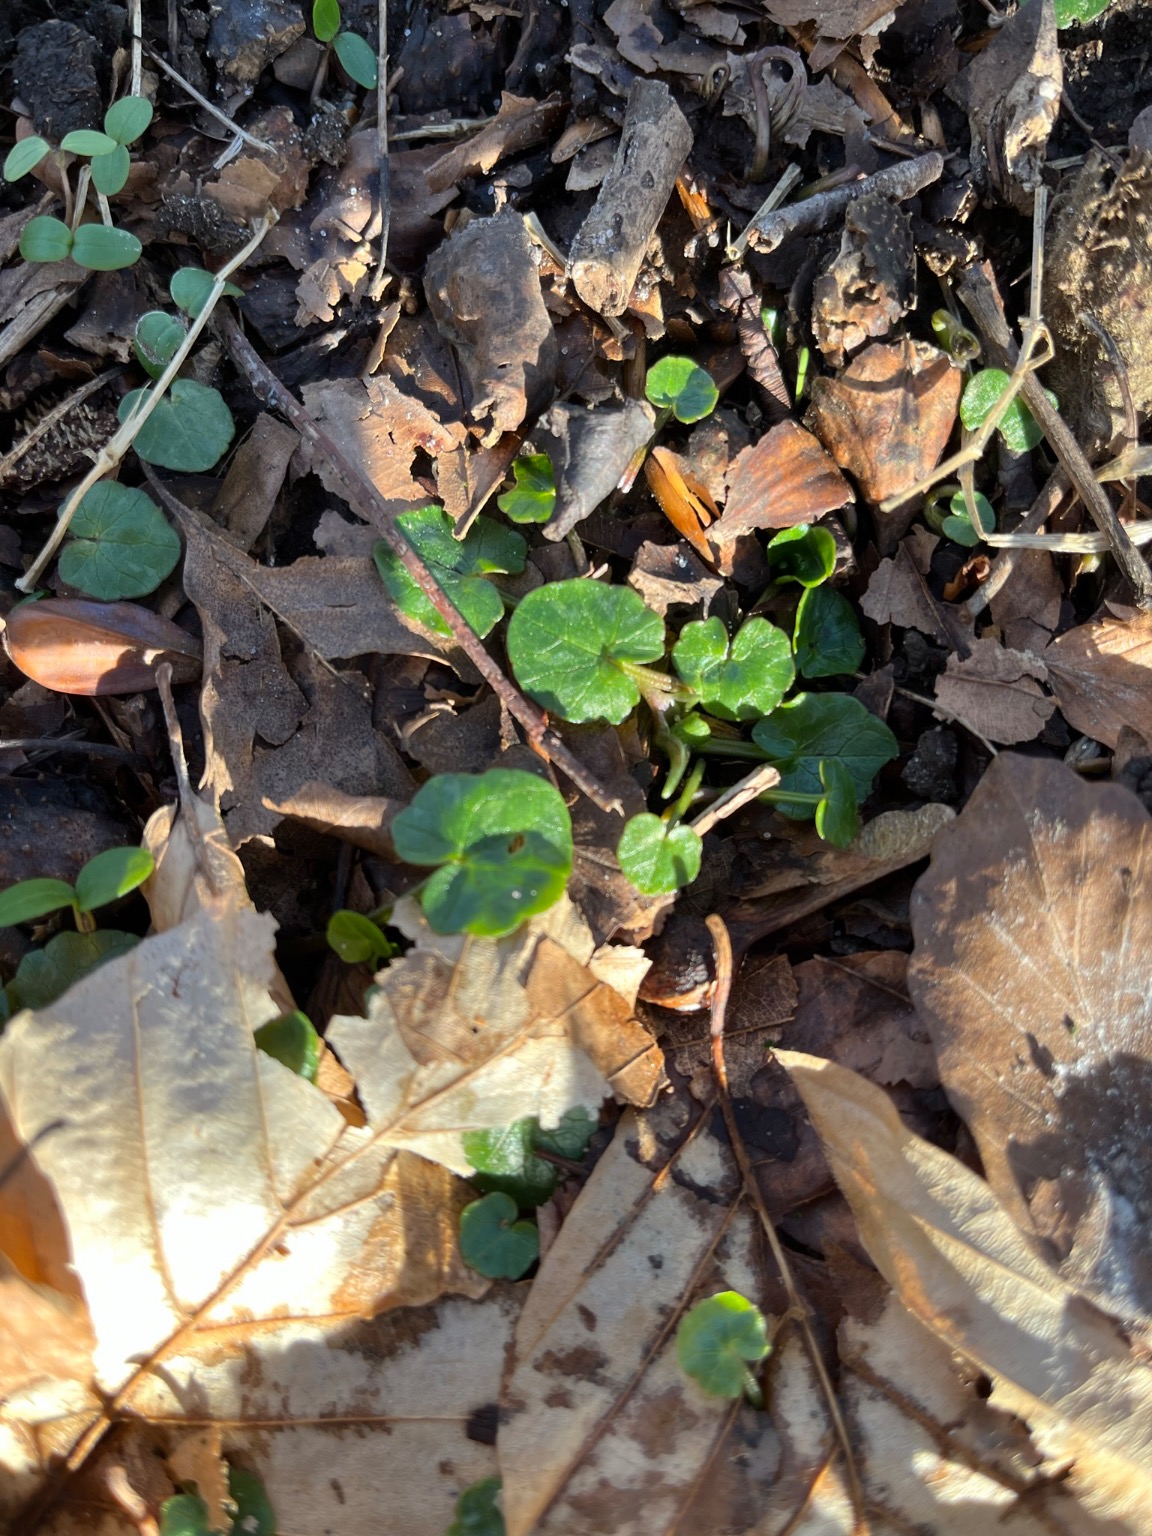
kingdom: Plantae
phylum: Tracheophyta
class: Magnoliopsida
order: Ranunculales
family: Ranunculaceae
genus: Ficaria
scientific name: Ficaria verna
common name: Vorterod
